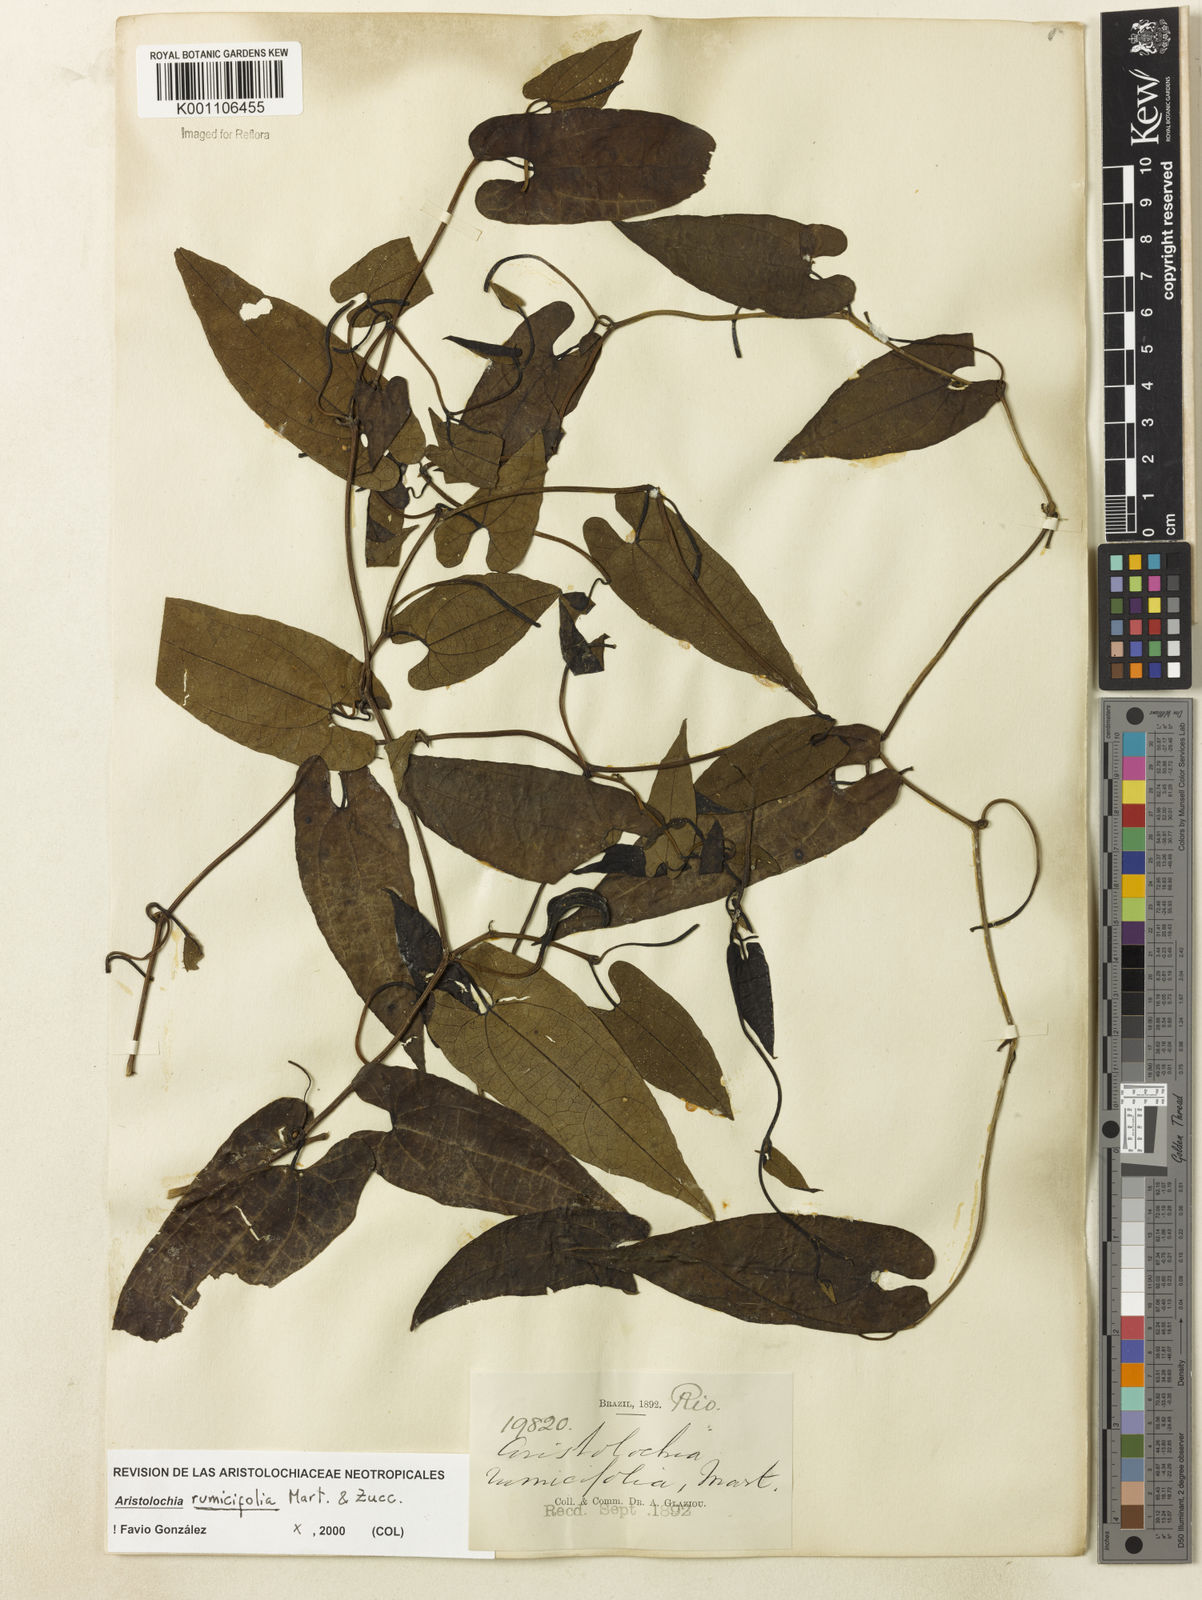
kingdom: Plantae
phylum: Tracheophyta
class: Magnoliopsida
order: Piperales
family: Aristolochiaceae
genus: Aristolochia
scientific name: Aristolochia rumicifolia
